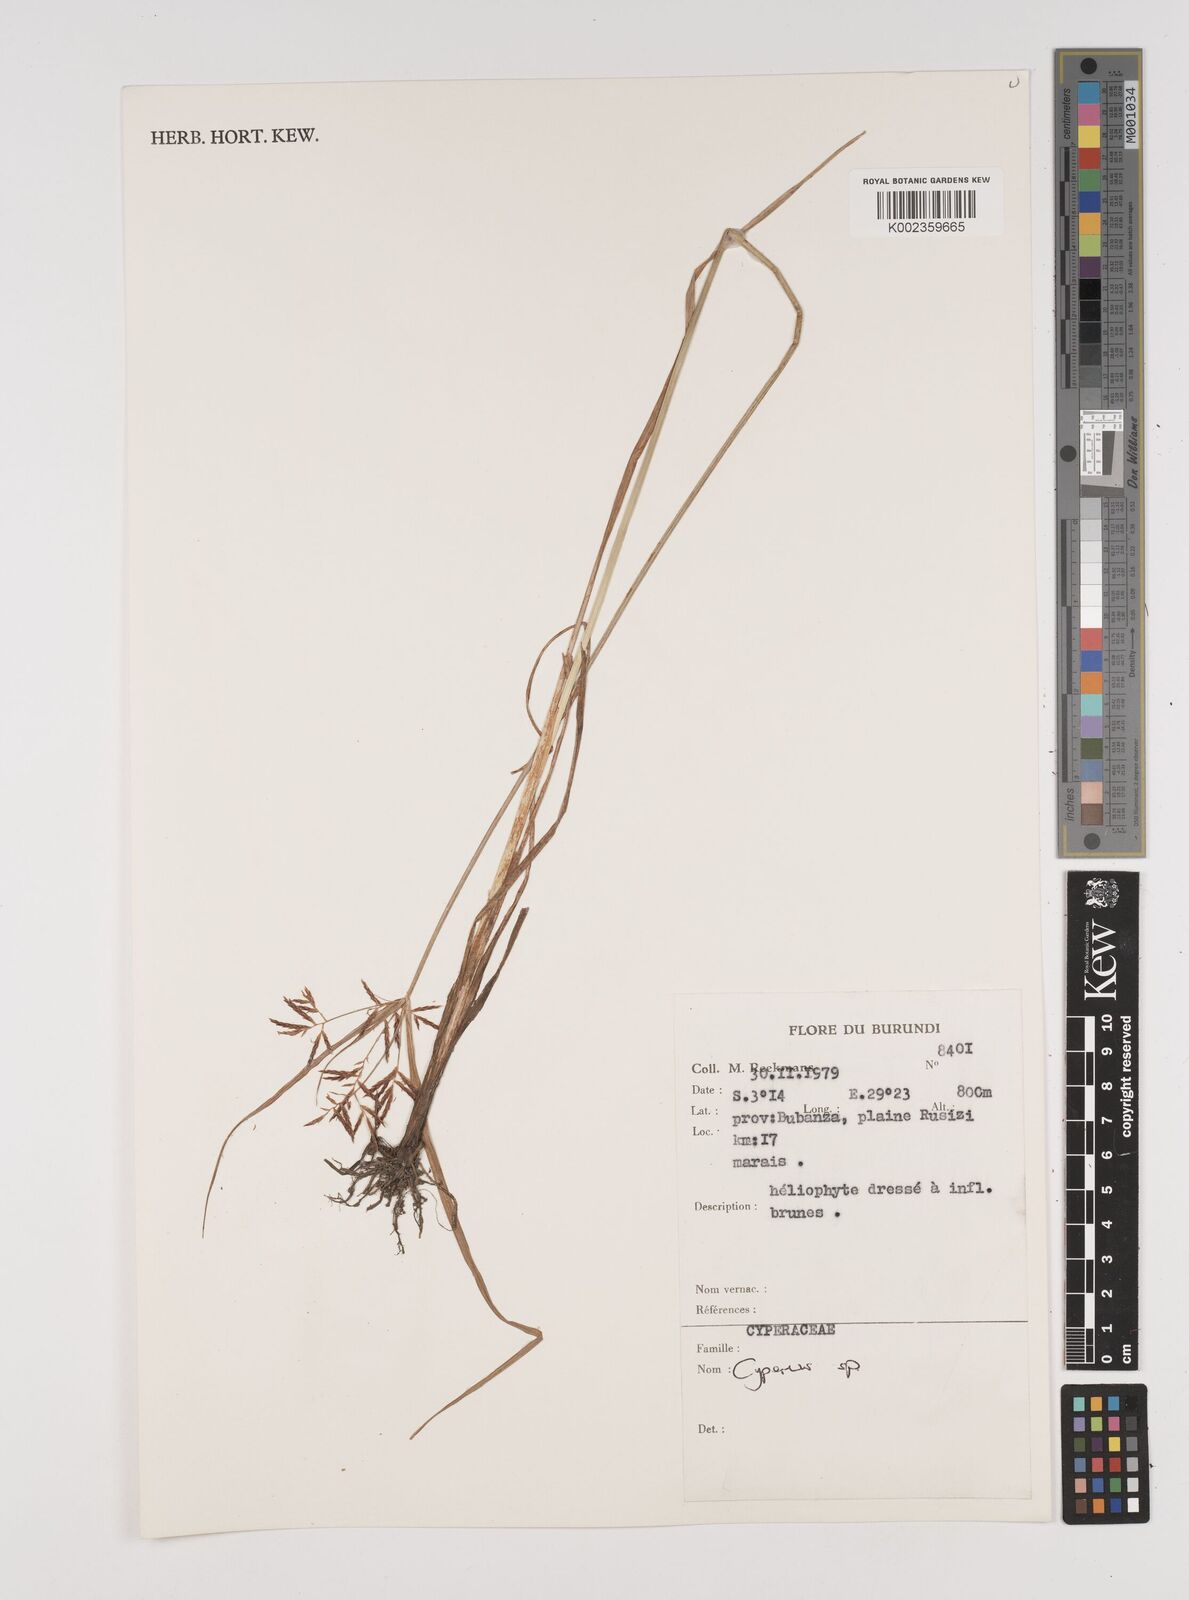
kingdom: Plantae
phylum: Tracheophyta
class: Liliopsida
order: Poales
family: Cyperaceae
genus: Cyperus
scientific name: Cyperus
